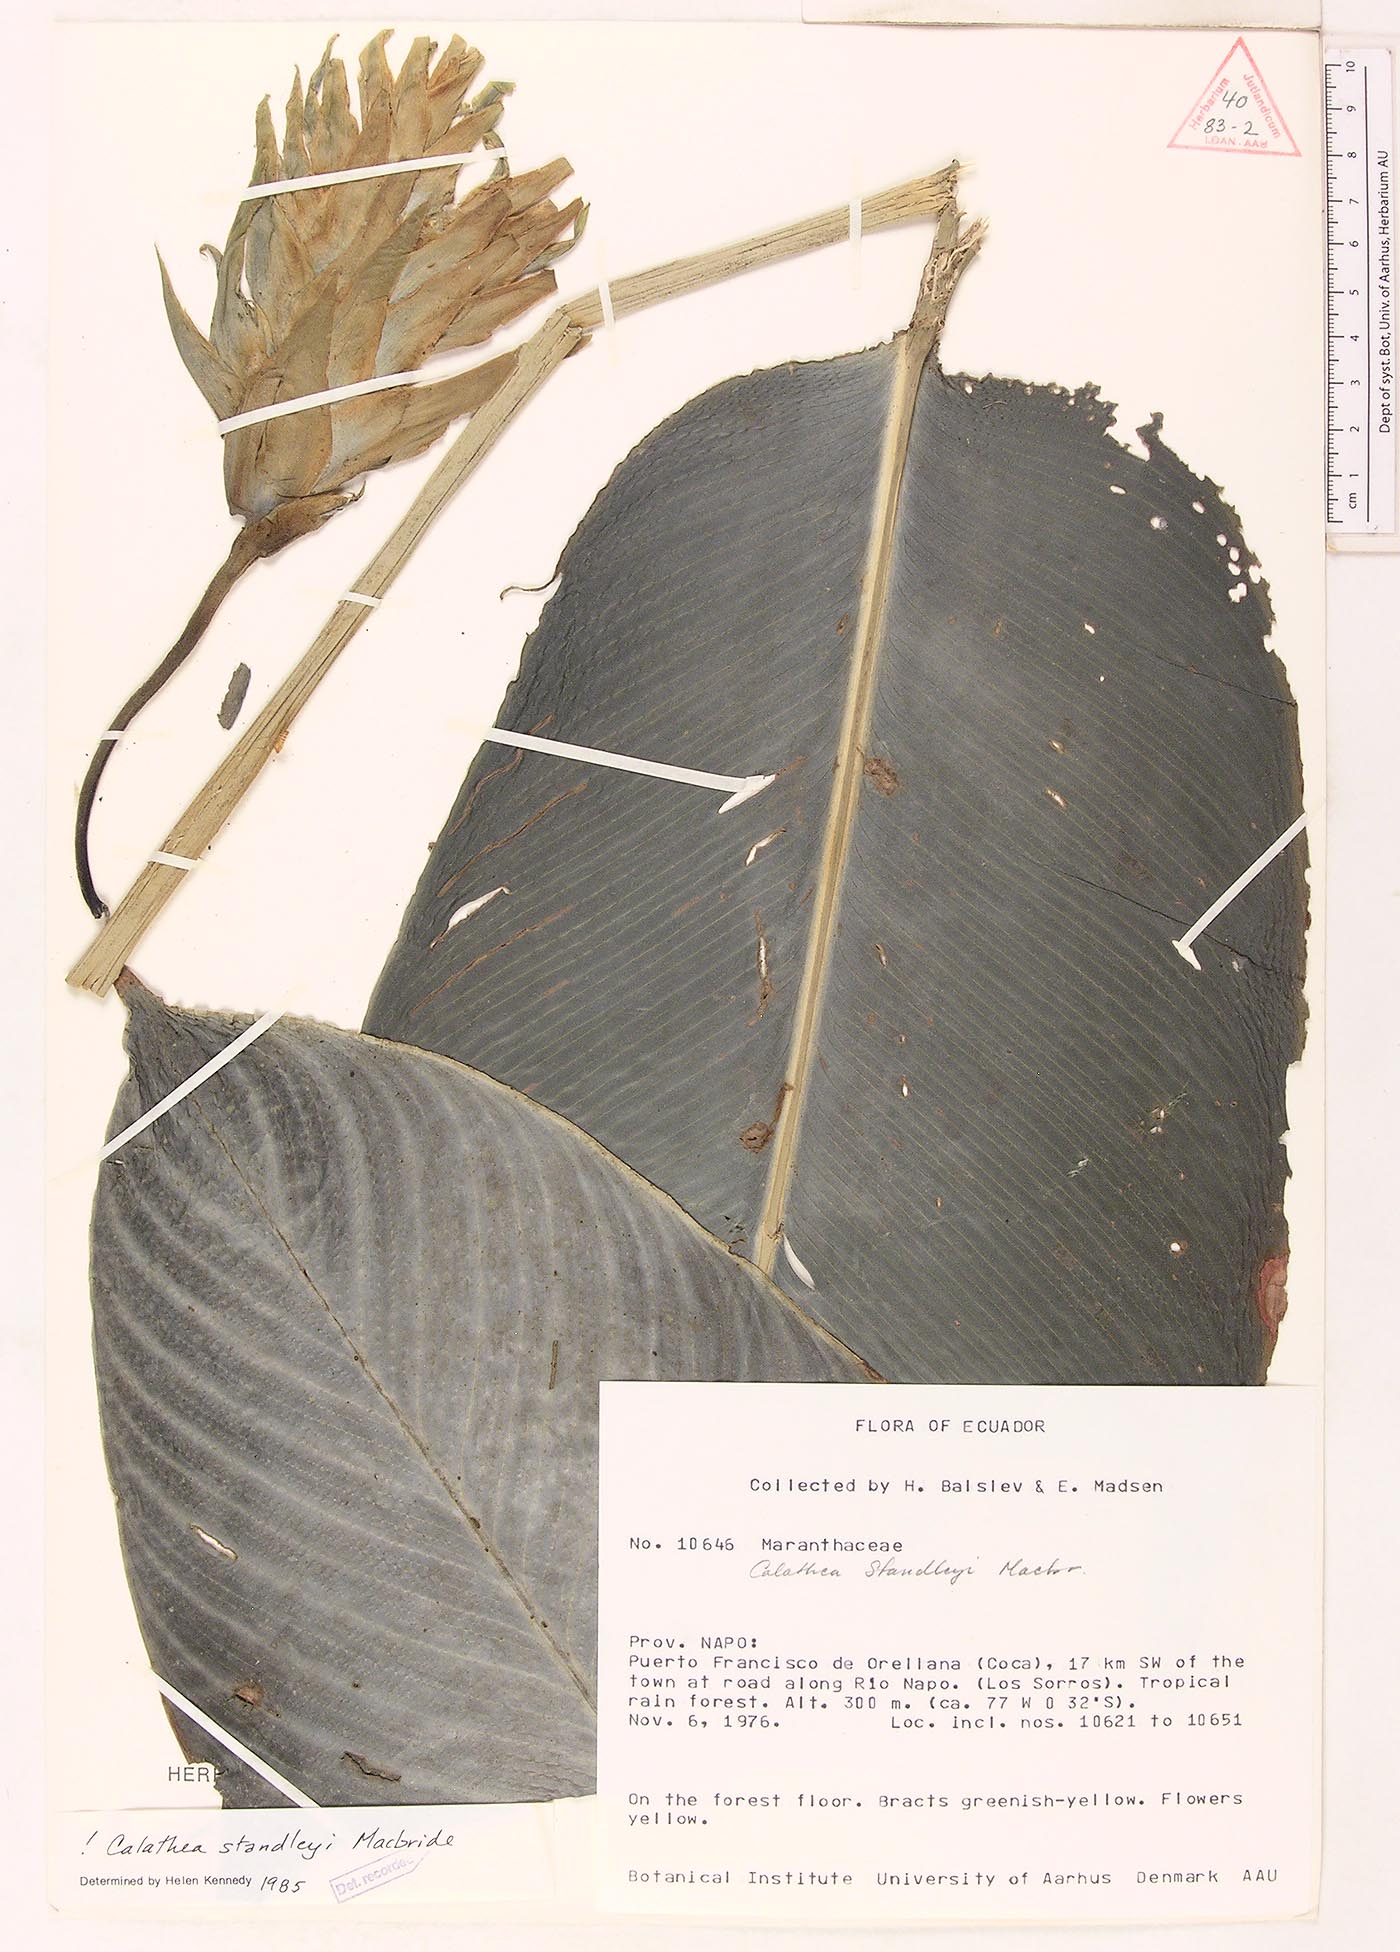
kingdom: Plantae
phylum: Tracheophyta
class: Liliopsida
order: Zingiberales
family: Marantaceae
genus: Goeppertia
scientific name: Goeppertia standleyi
